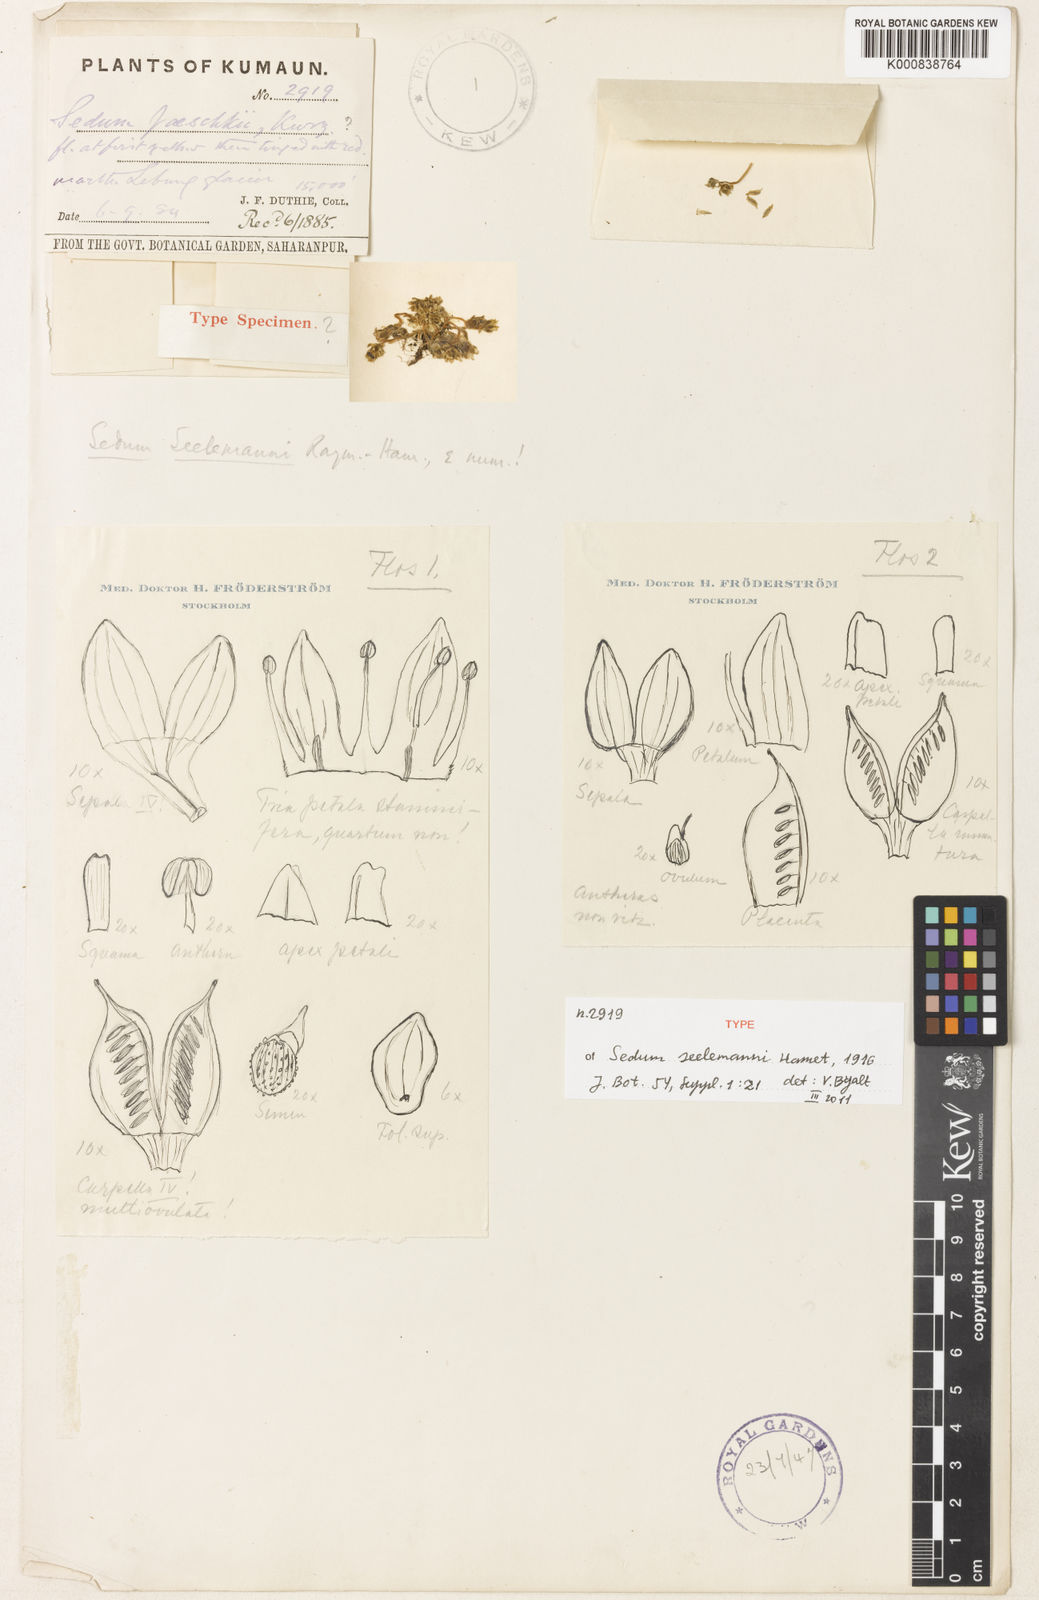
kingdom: Plantae
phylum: Tracheophyta
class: Magnoliopsida
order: Saxifragales
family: Crassulaceae
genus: Sedum
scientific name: Sedum
